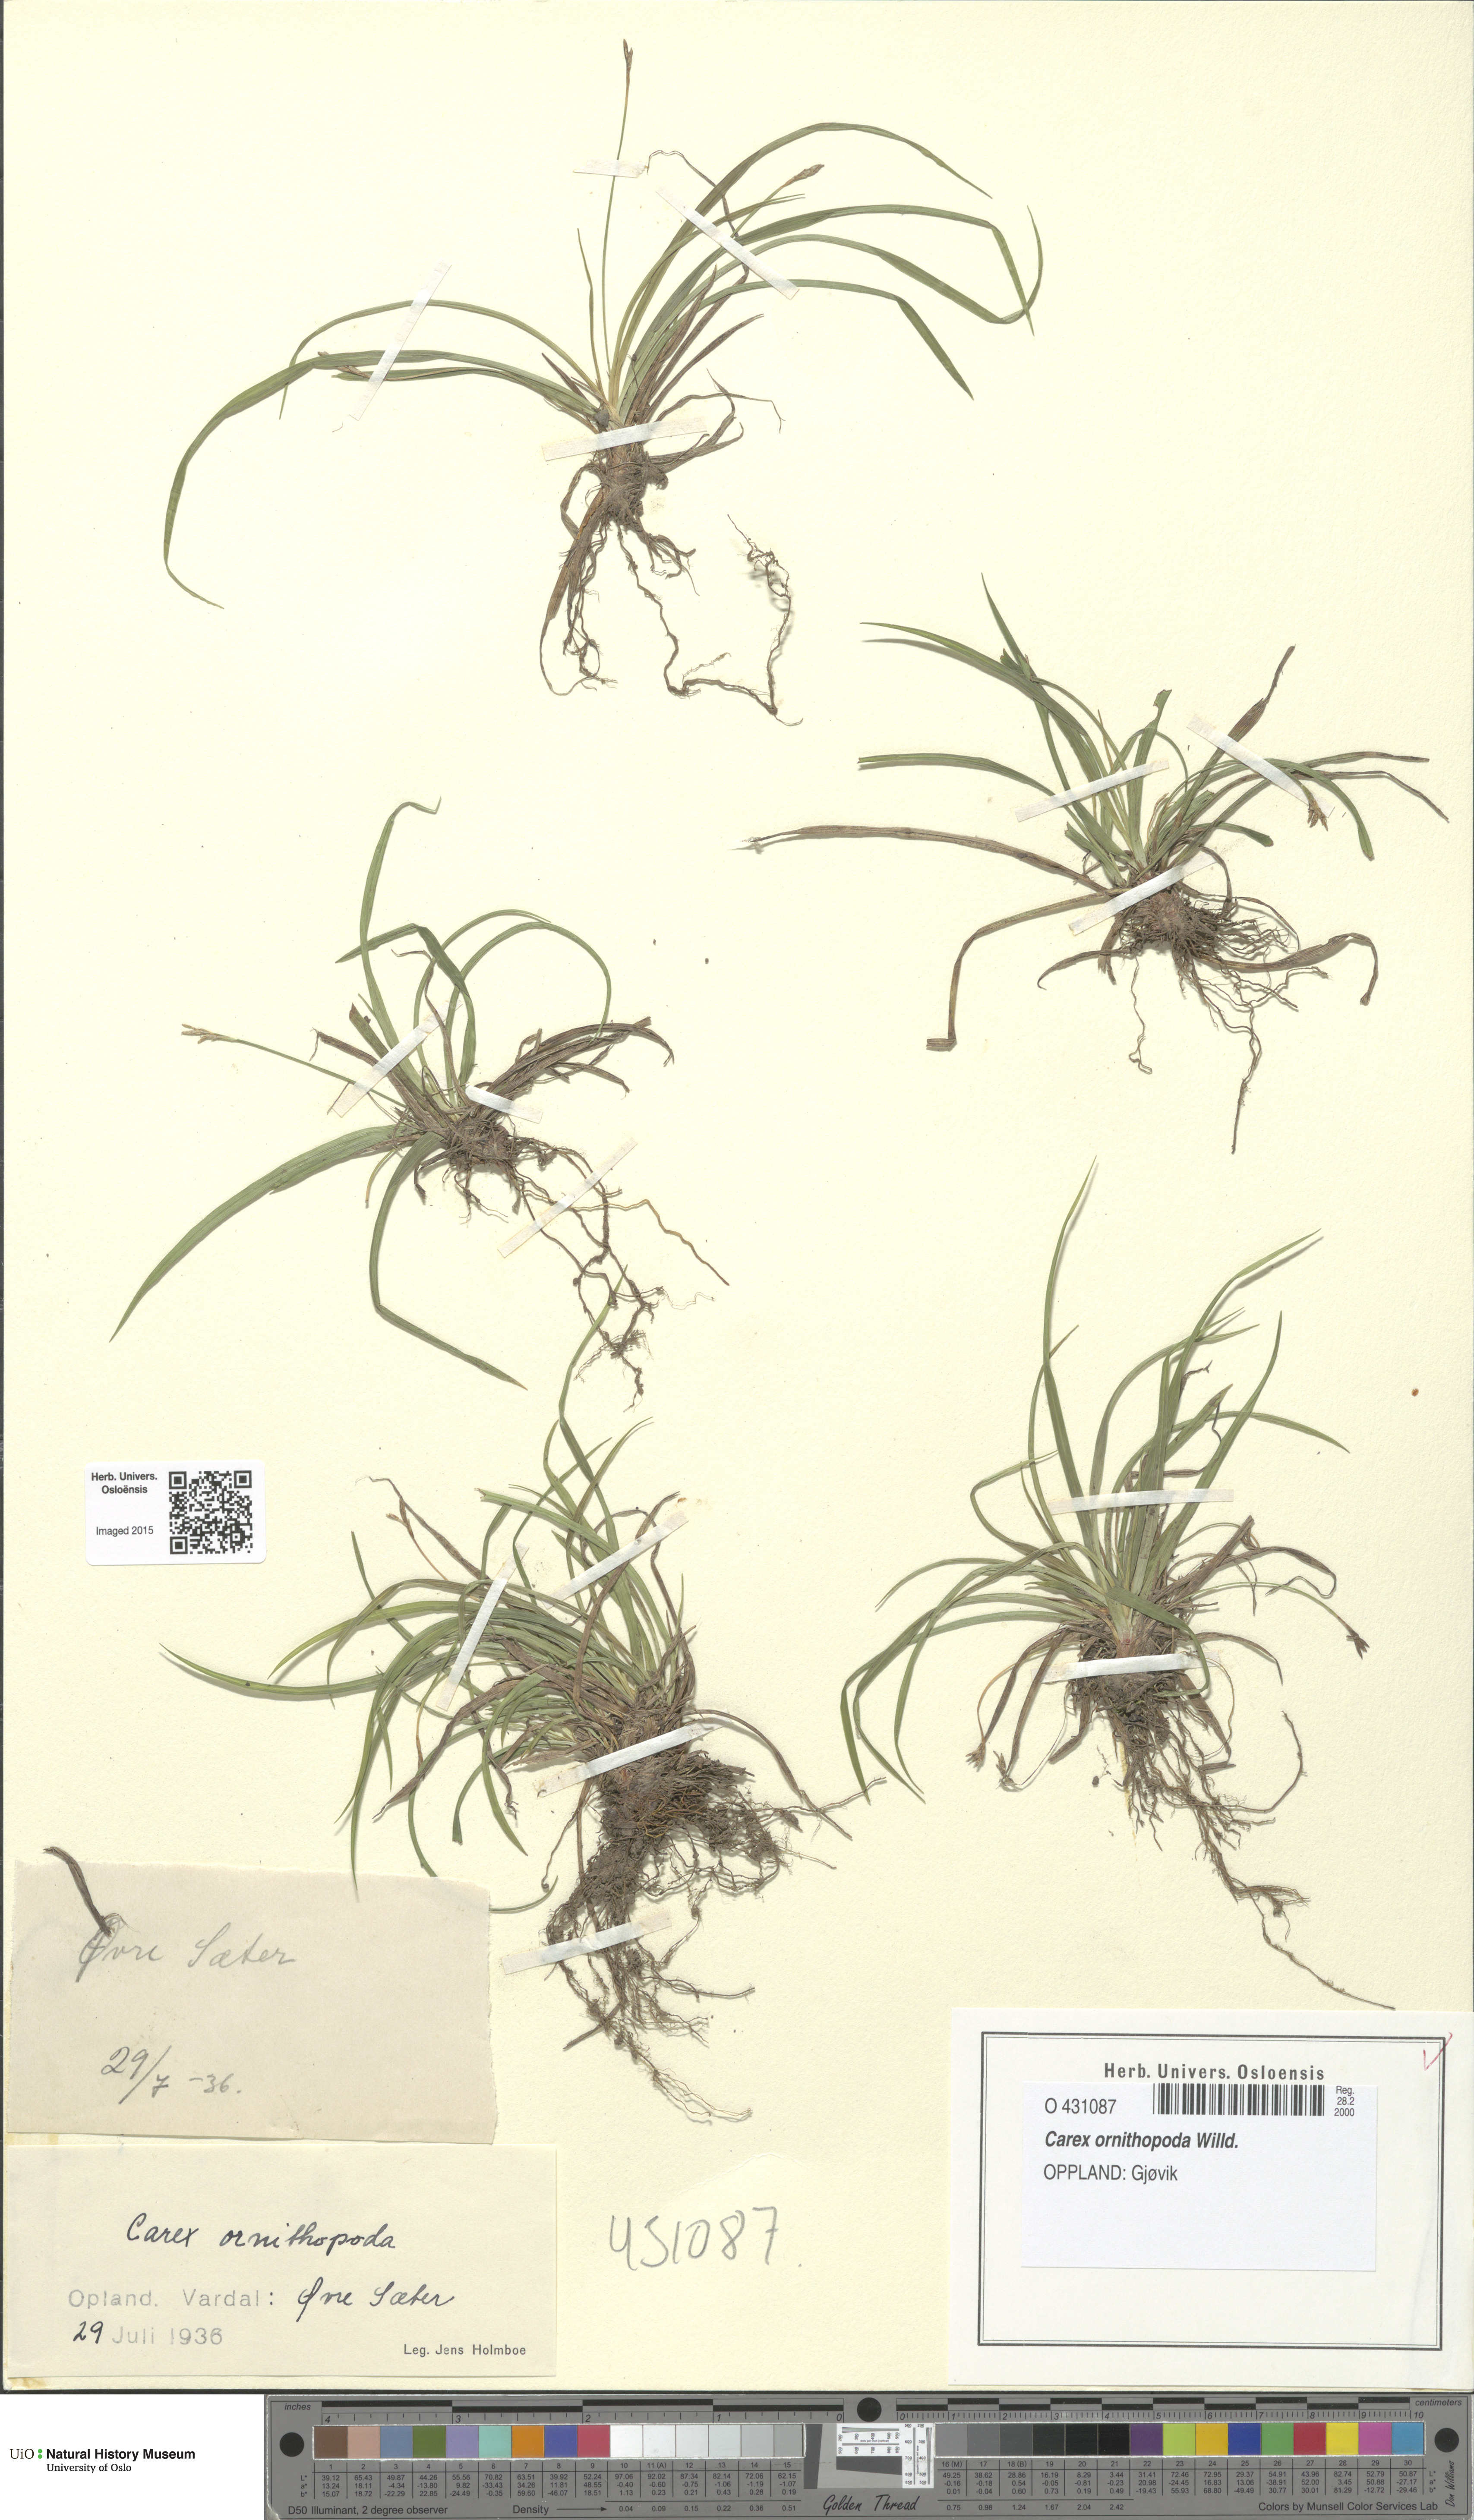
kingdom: Plantae
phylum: Tracheophyta
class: Liliopsida
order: Poales
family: Cyperaceae
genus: Carex
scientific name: Carex ornithopoda
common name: Bird's-foot sedge
